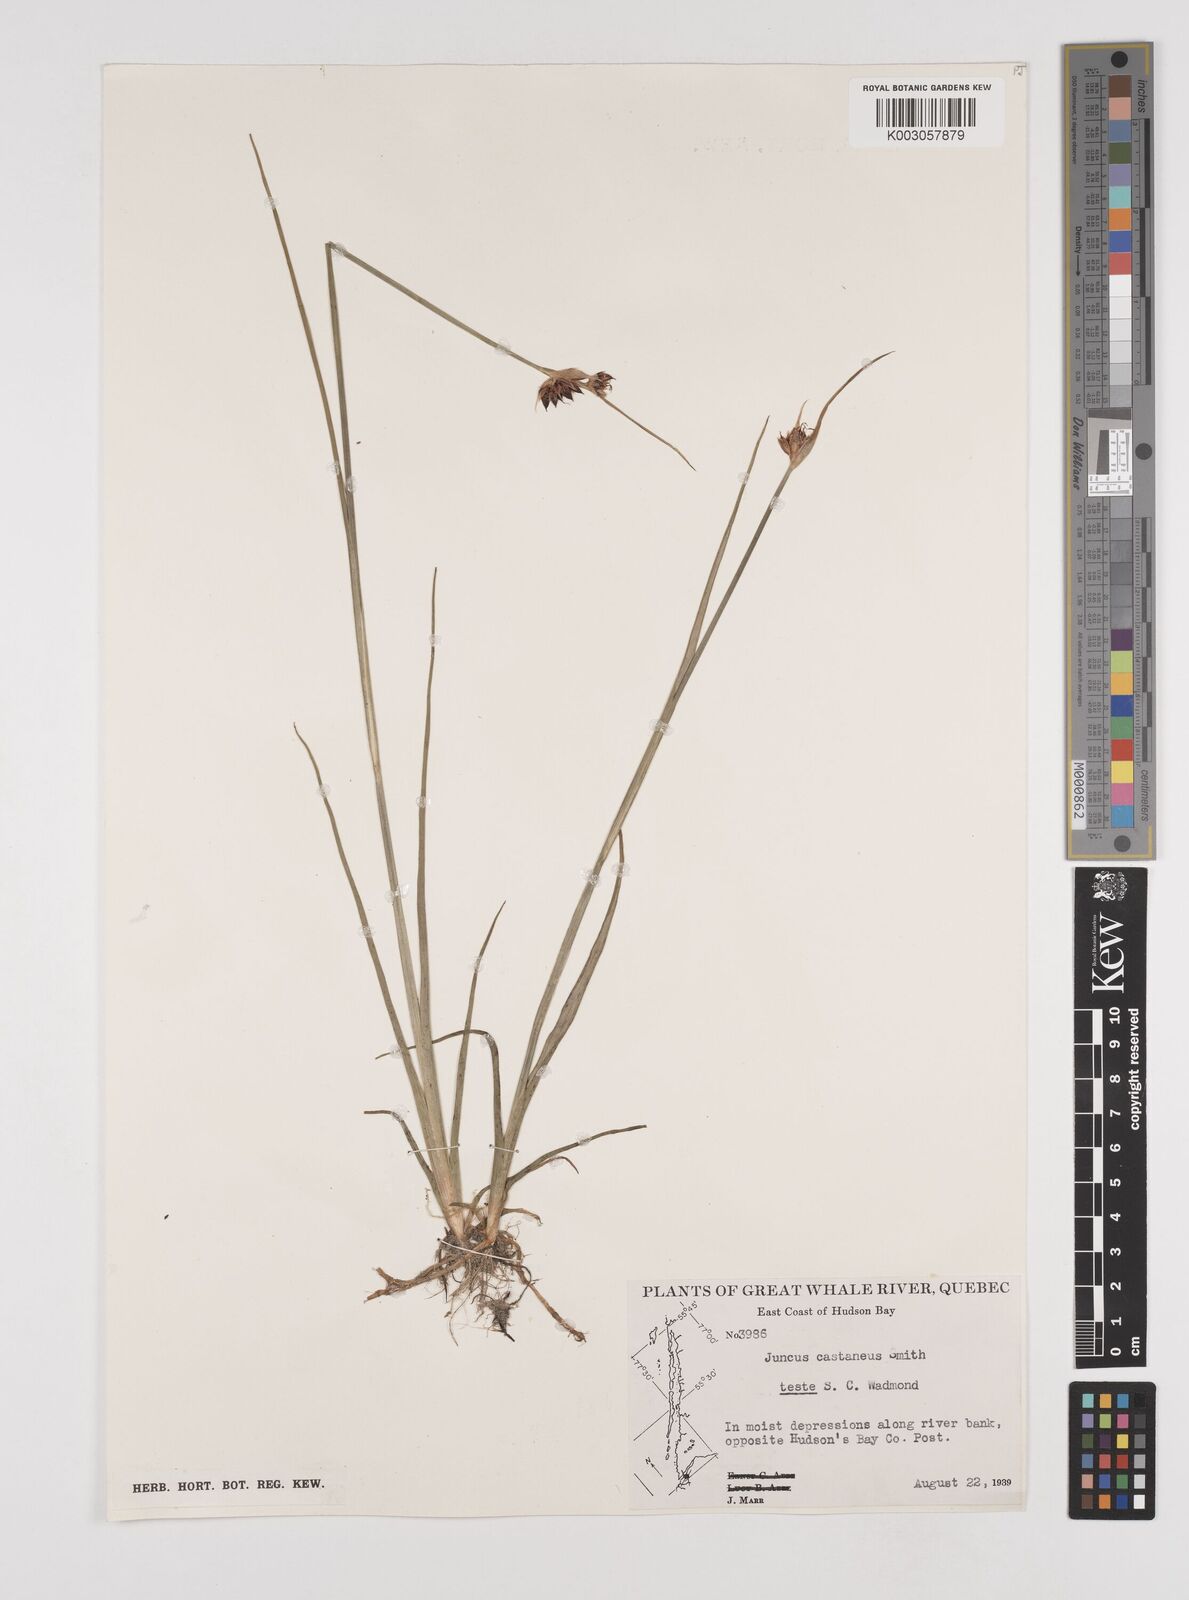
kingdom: Plantae
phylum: Tracheophyta
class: Liliopsida
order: Poales
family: Juncaceae
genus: Juncus
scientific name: Juncus castaneus
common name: Chestnut rush
